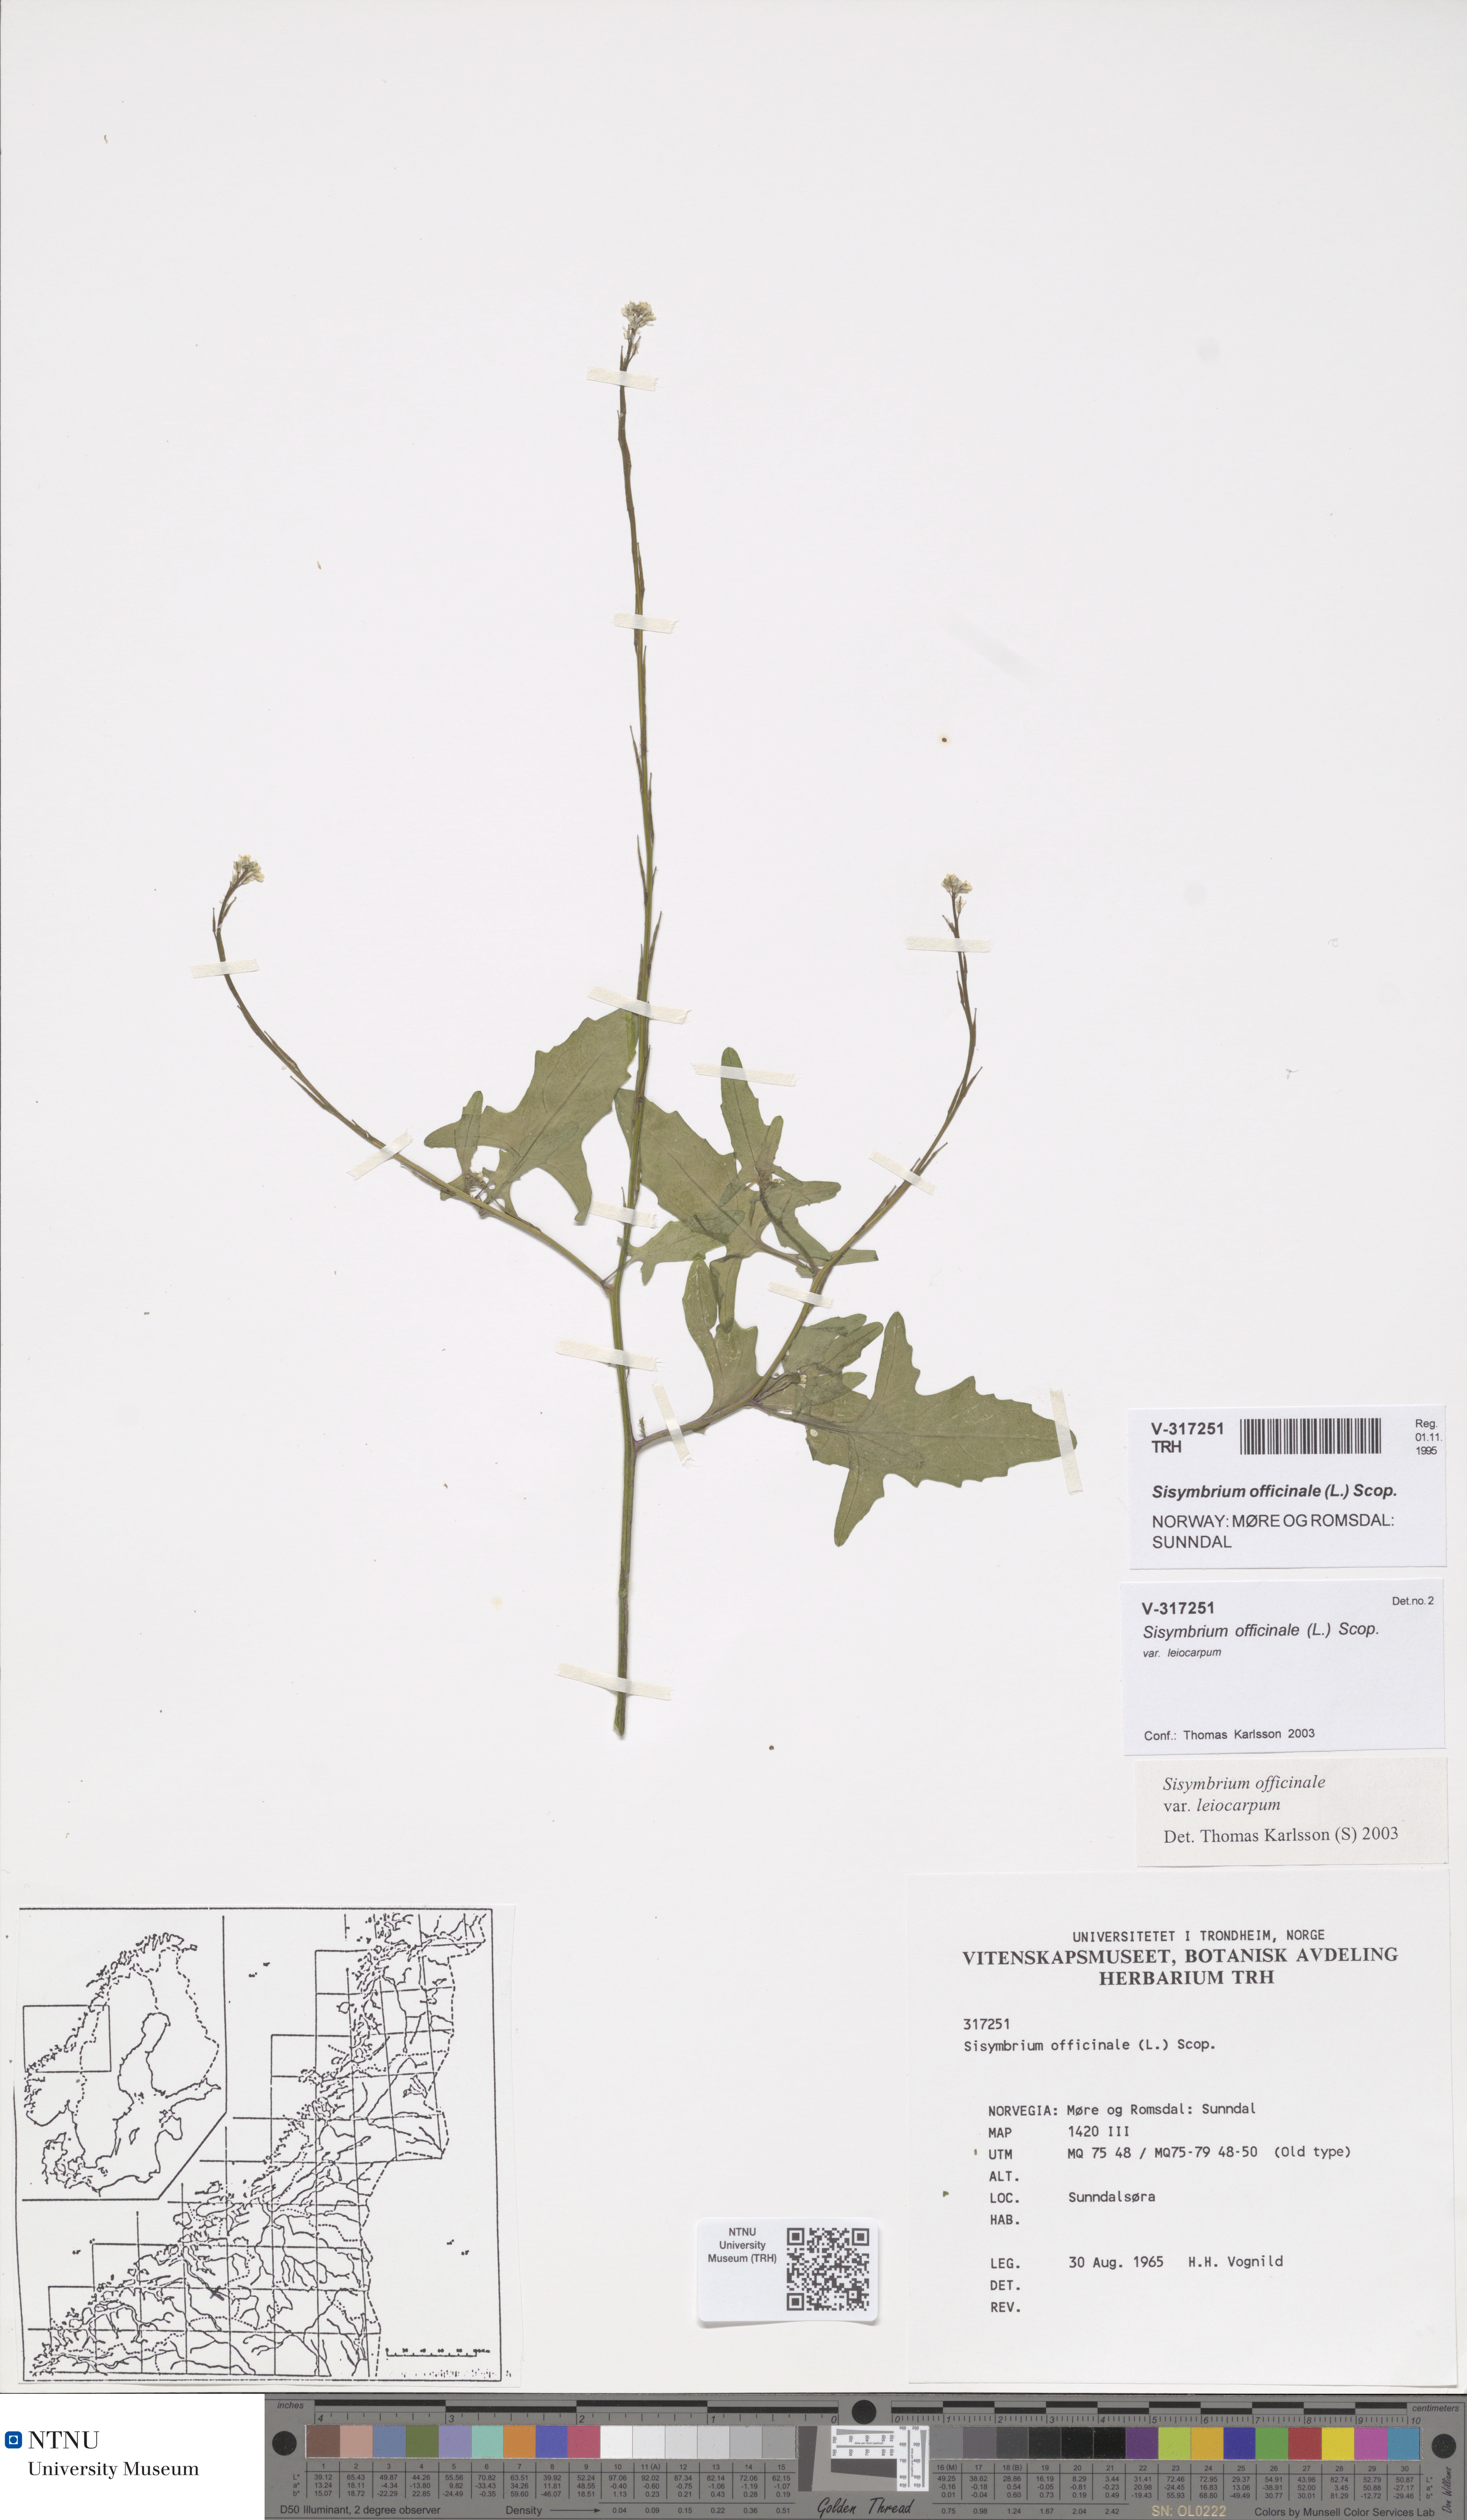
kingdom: Plantae
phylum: Tracheophyta
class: Magnoliopsida
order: Brassicales
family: Brassicaceae
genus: Sisymbrium
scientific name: Sisymbrium officinale
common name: Hedge mustard
